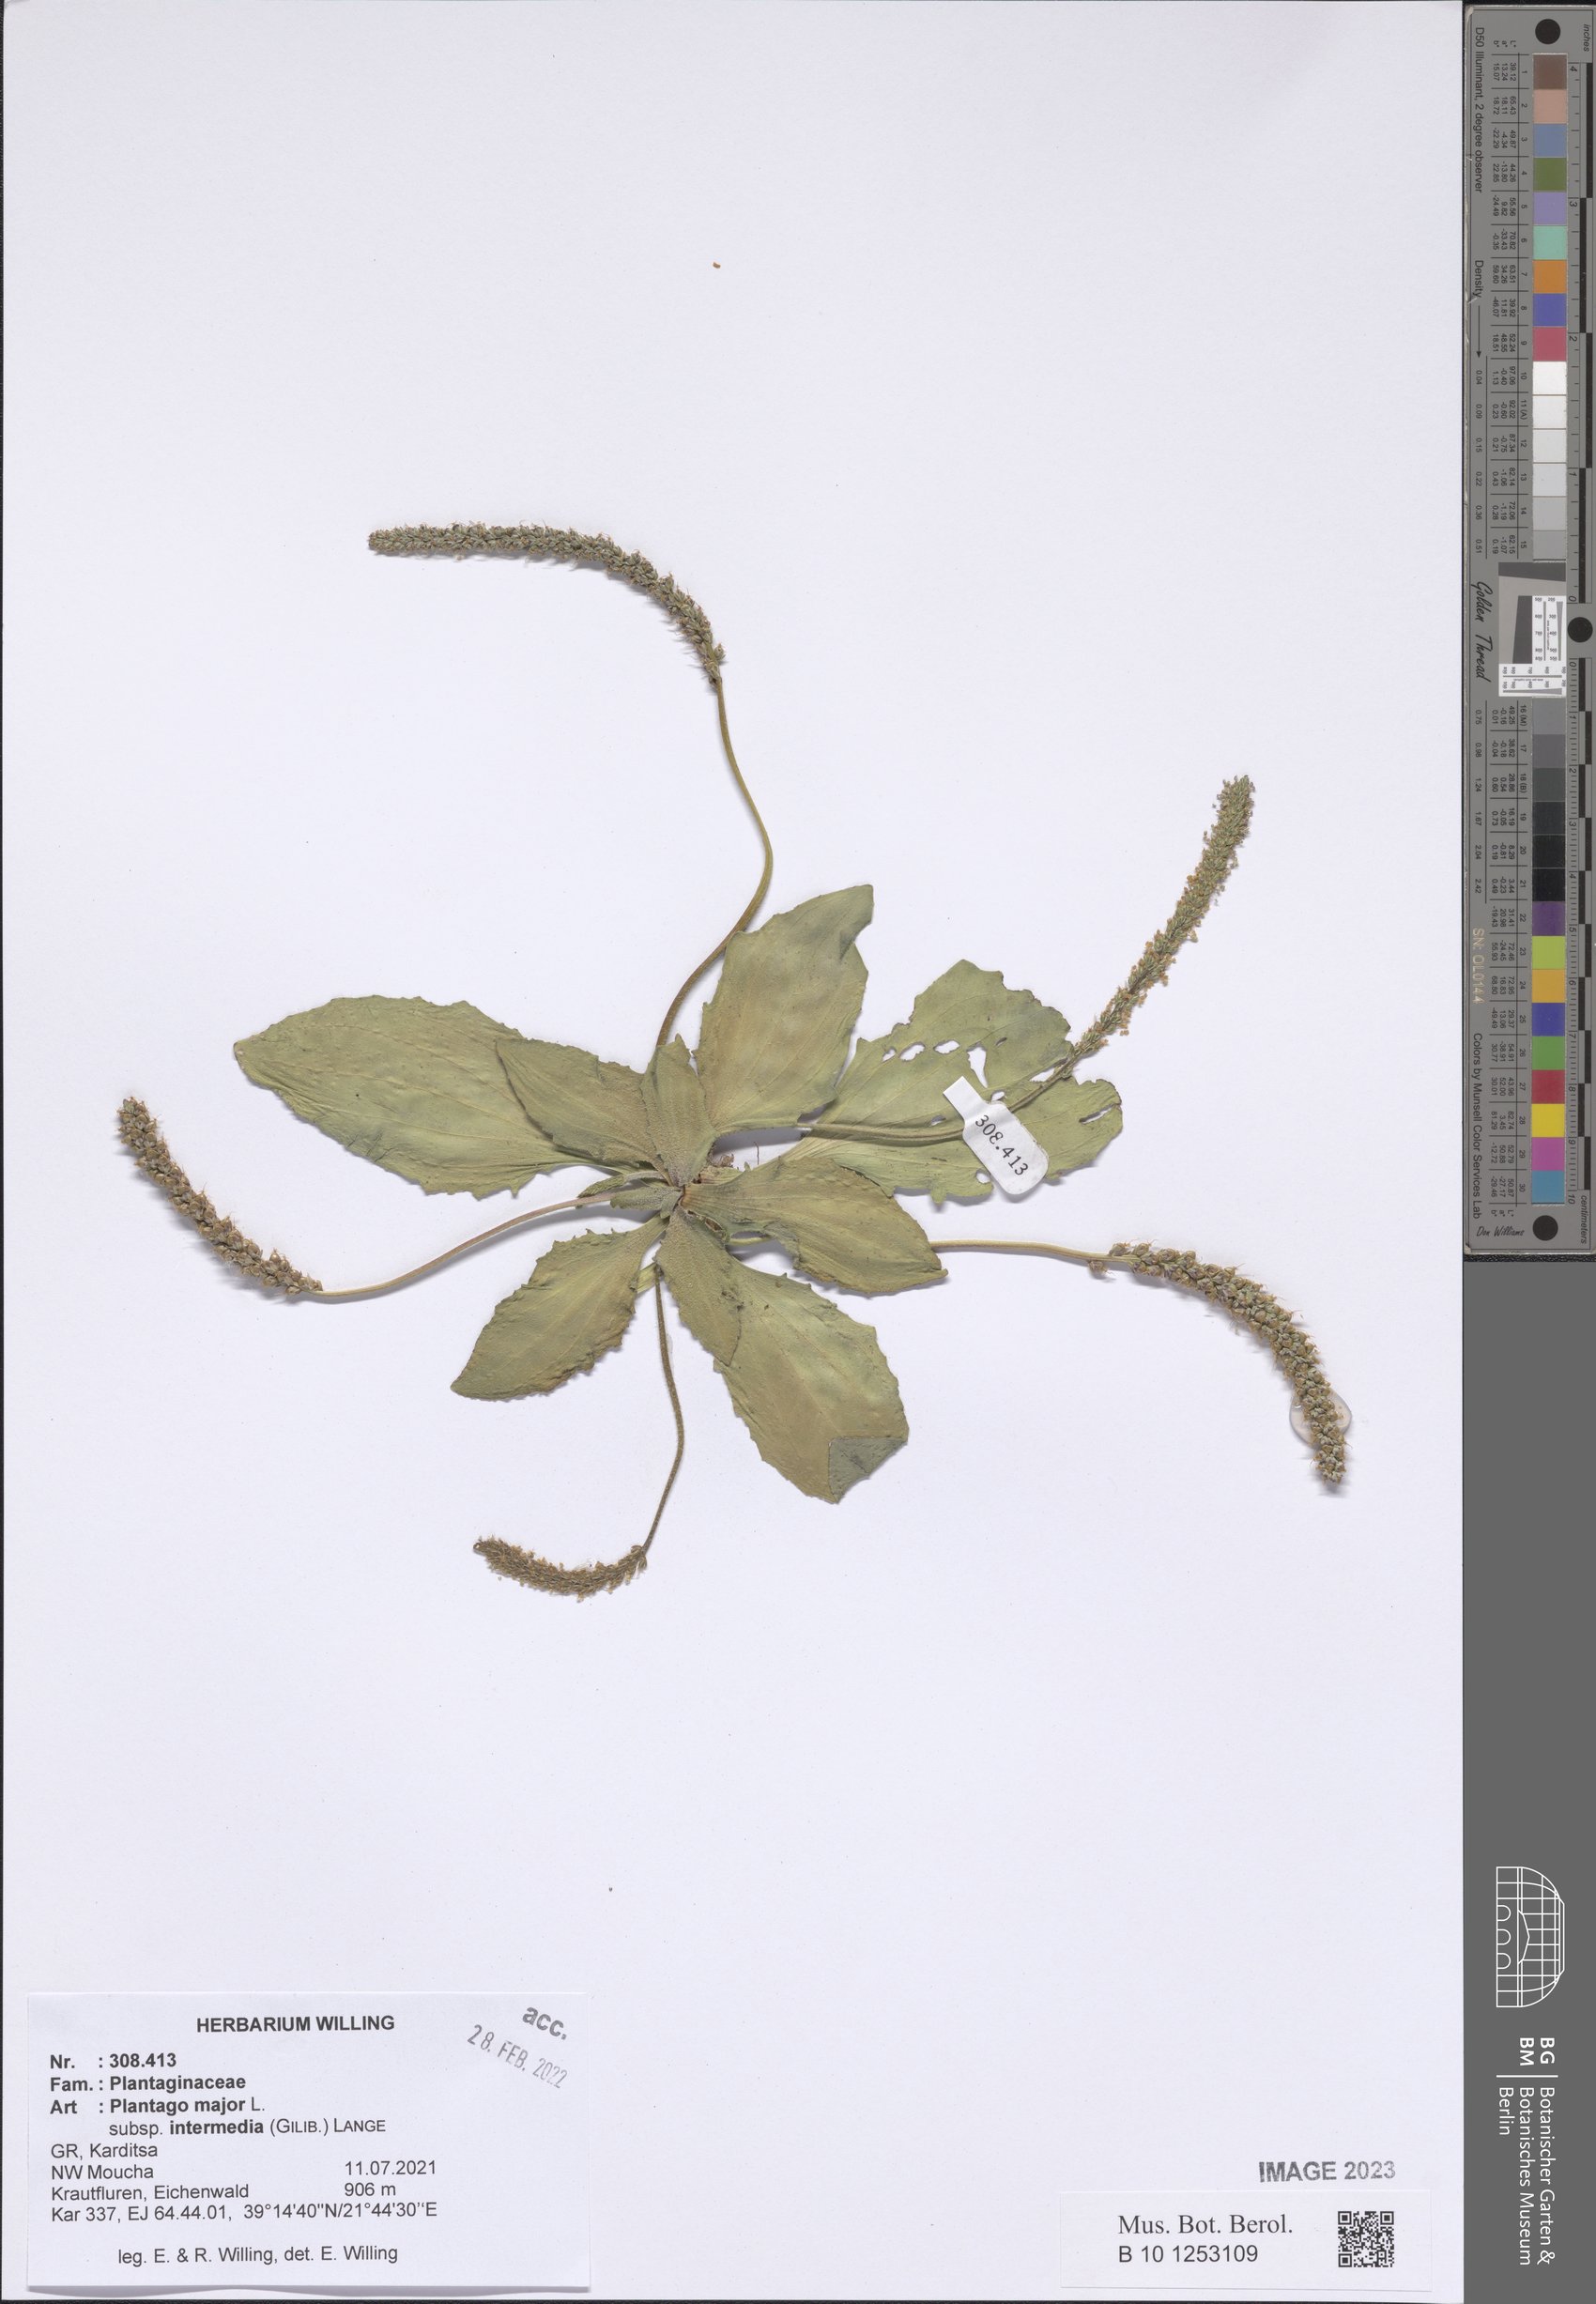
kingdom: Plantae
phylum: Tracheophyta
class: Magnoliopsida
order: Lamiales
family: Plantaginaceae
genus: Plantago
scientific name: Plantago uliginosa
